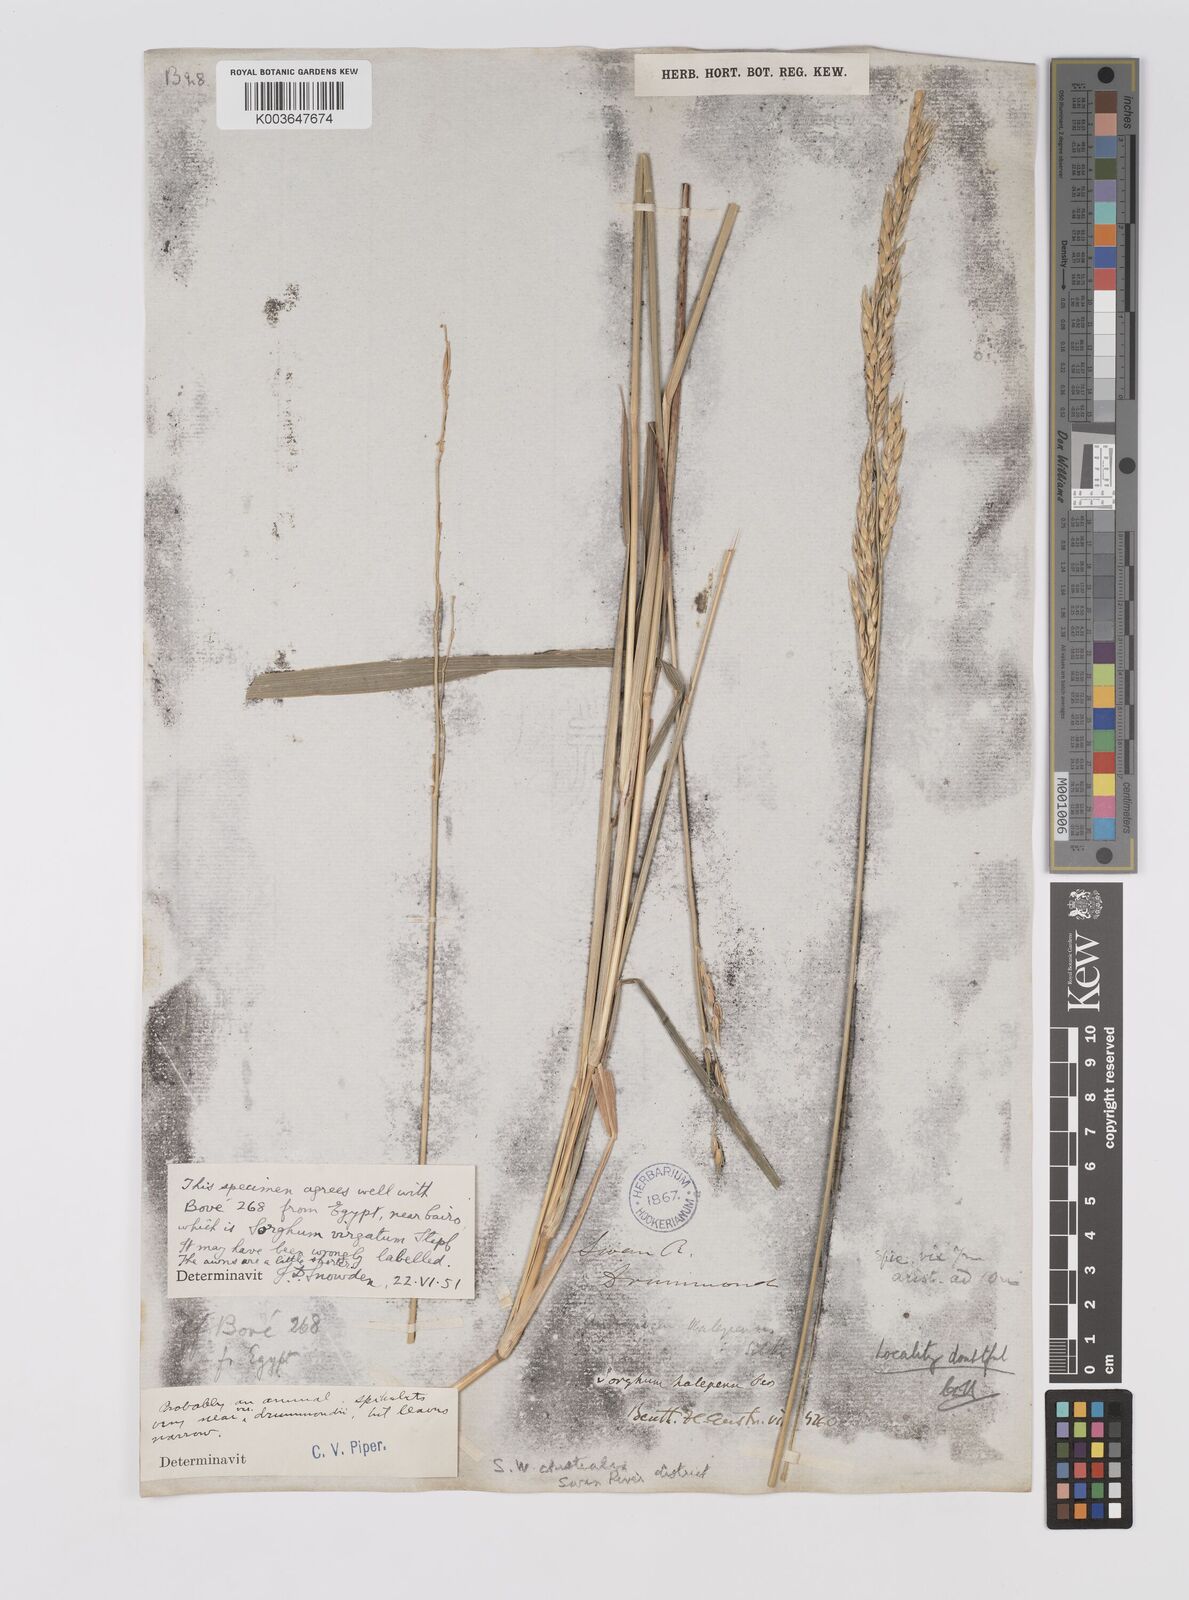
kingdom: Plantae
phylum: Tracheophyta
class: Liliopsida
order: Poales
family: Poaceae
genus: Sorghum
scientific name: Sorghum virgatum
